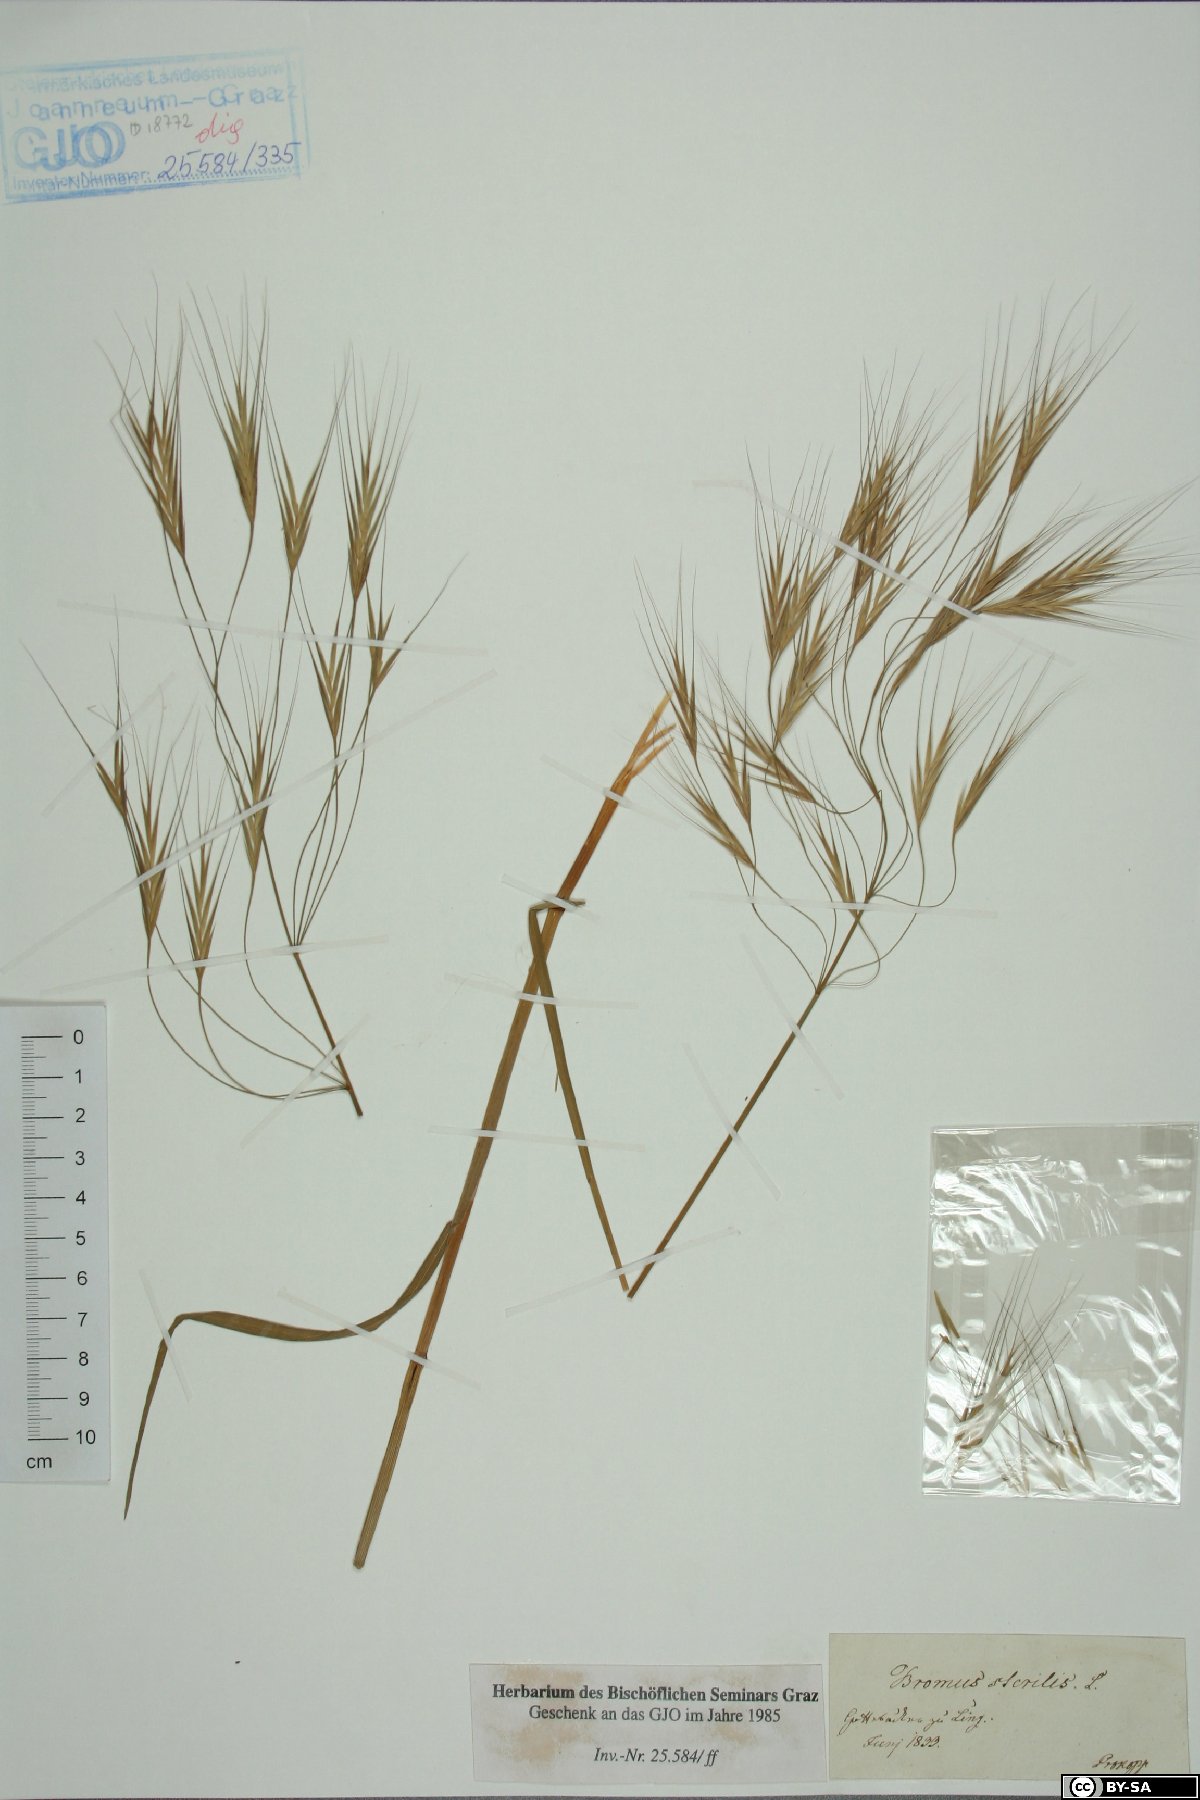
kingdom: Plantae
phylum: Tracheophyta
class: Liliopsida
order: Poales
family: Poaceae
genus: Bromus
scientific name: Bromus sterilis
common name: Poverty brome
